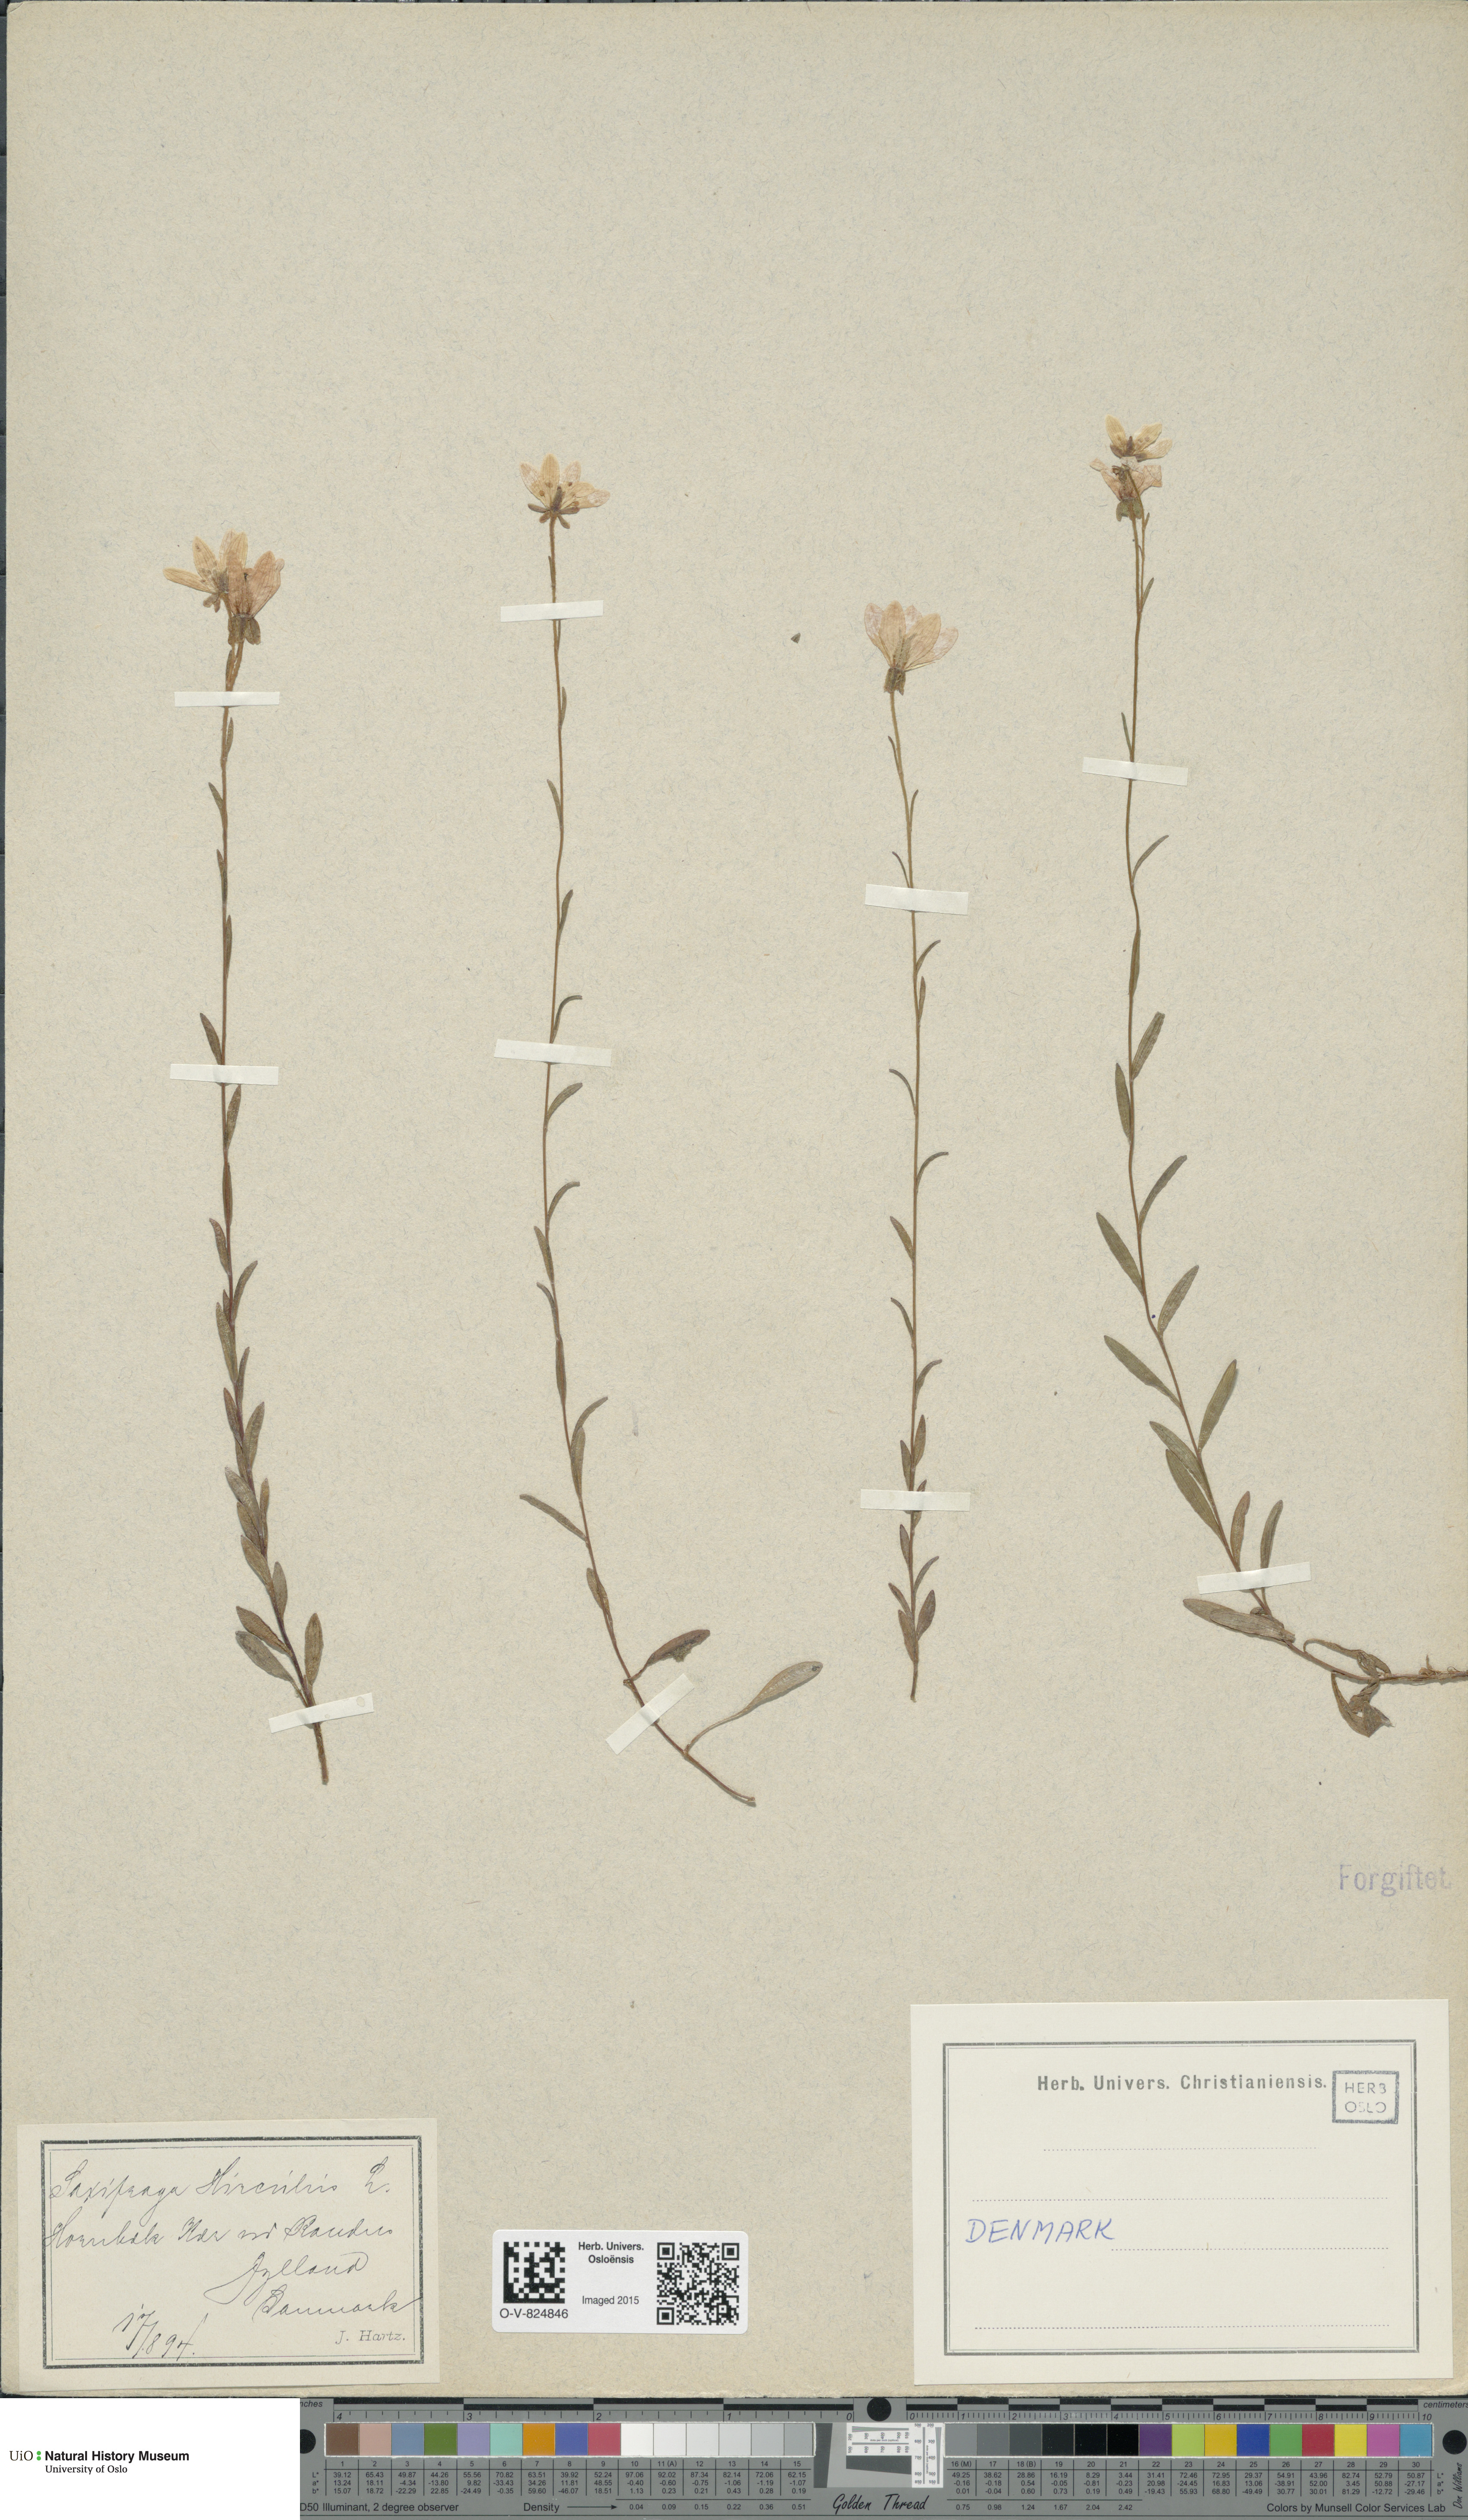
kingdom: Plantae
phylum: Tracheophyta
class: Magnoliopsida
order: Saxifragales
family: Saxifragaceae
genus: Saxifraga
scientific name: Saxifraga hirculus
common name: Yellow marsh saxifrage
